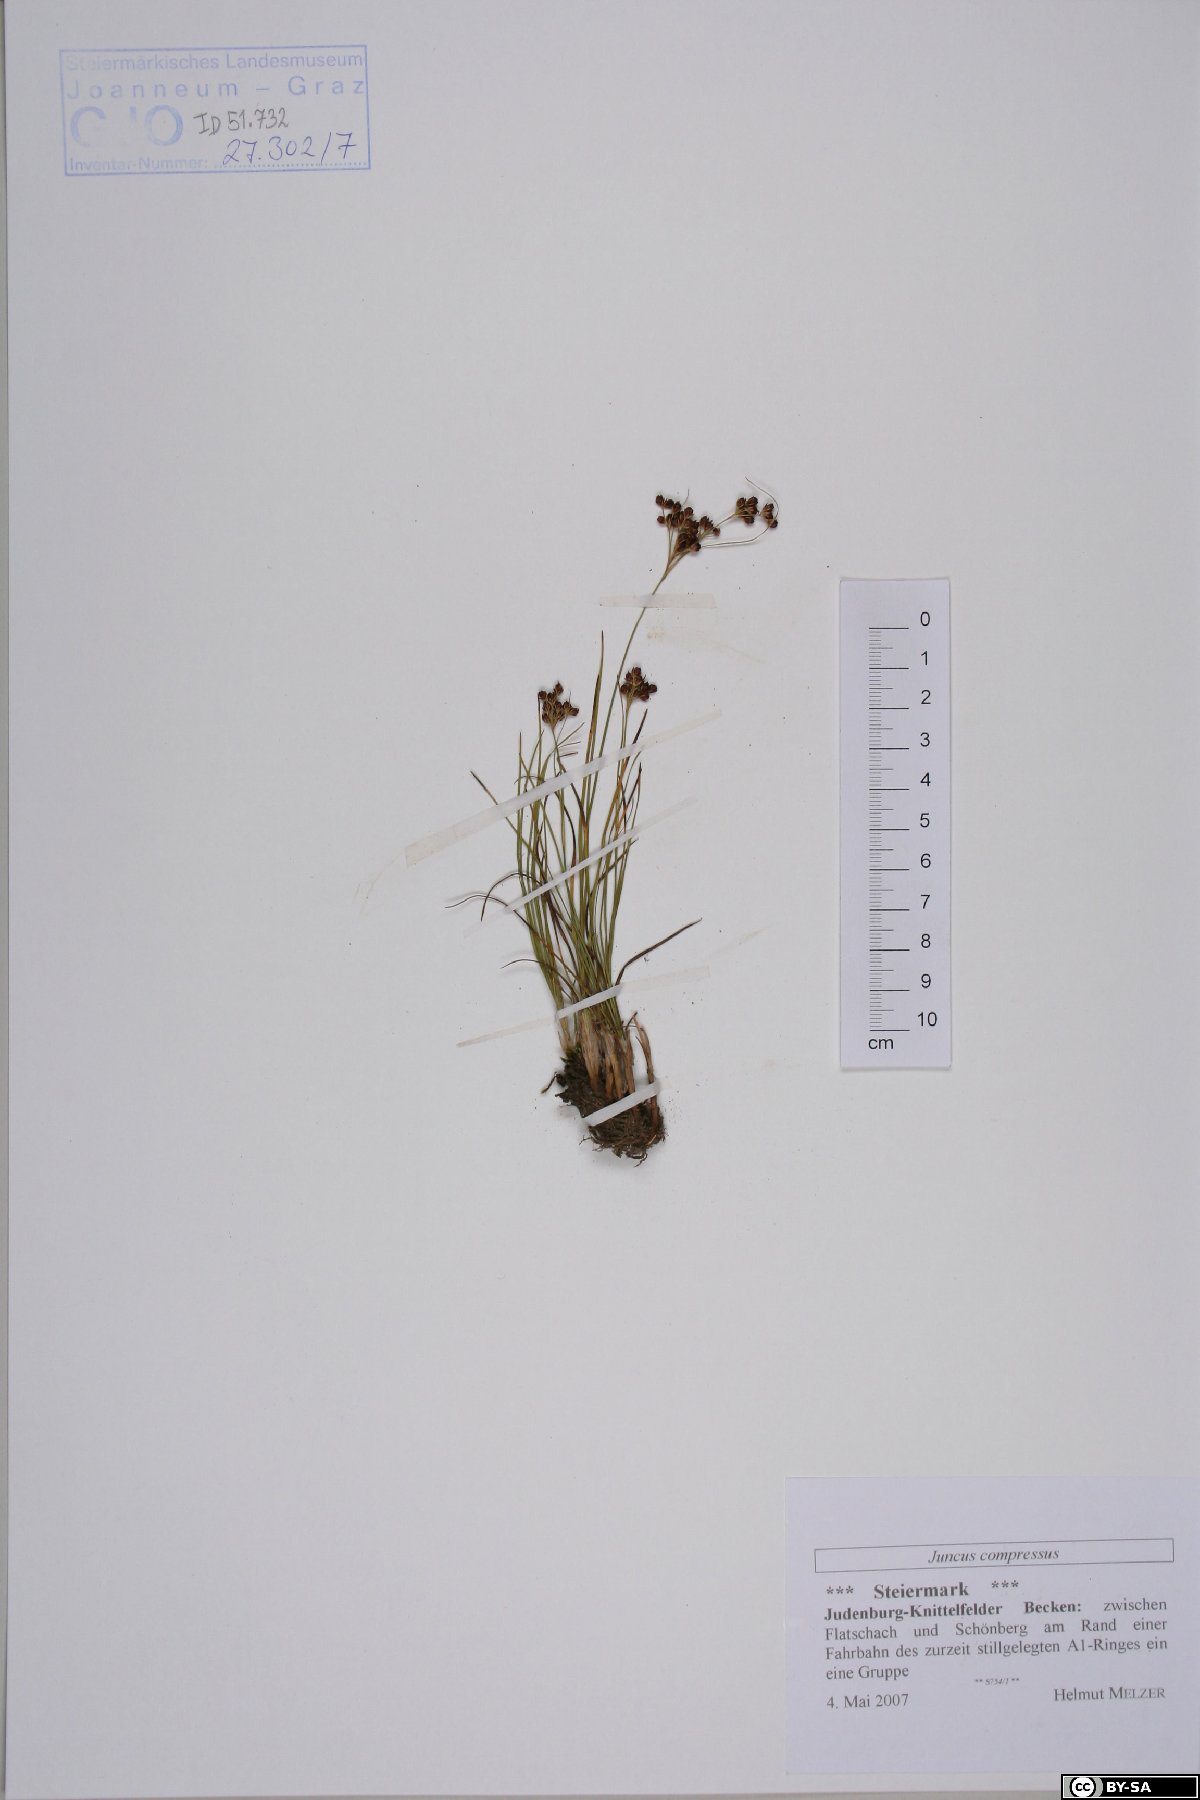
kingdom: Plantae
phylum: Tracheophyta
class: Liliopsida
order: Poales
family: Juncaceae
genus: Juncus
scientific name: Juncus compressus
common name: Round-fruited rush
